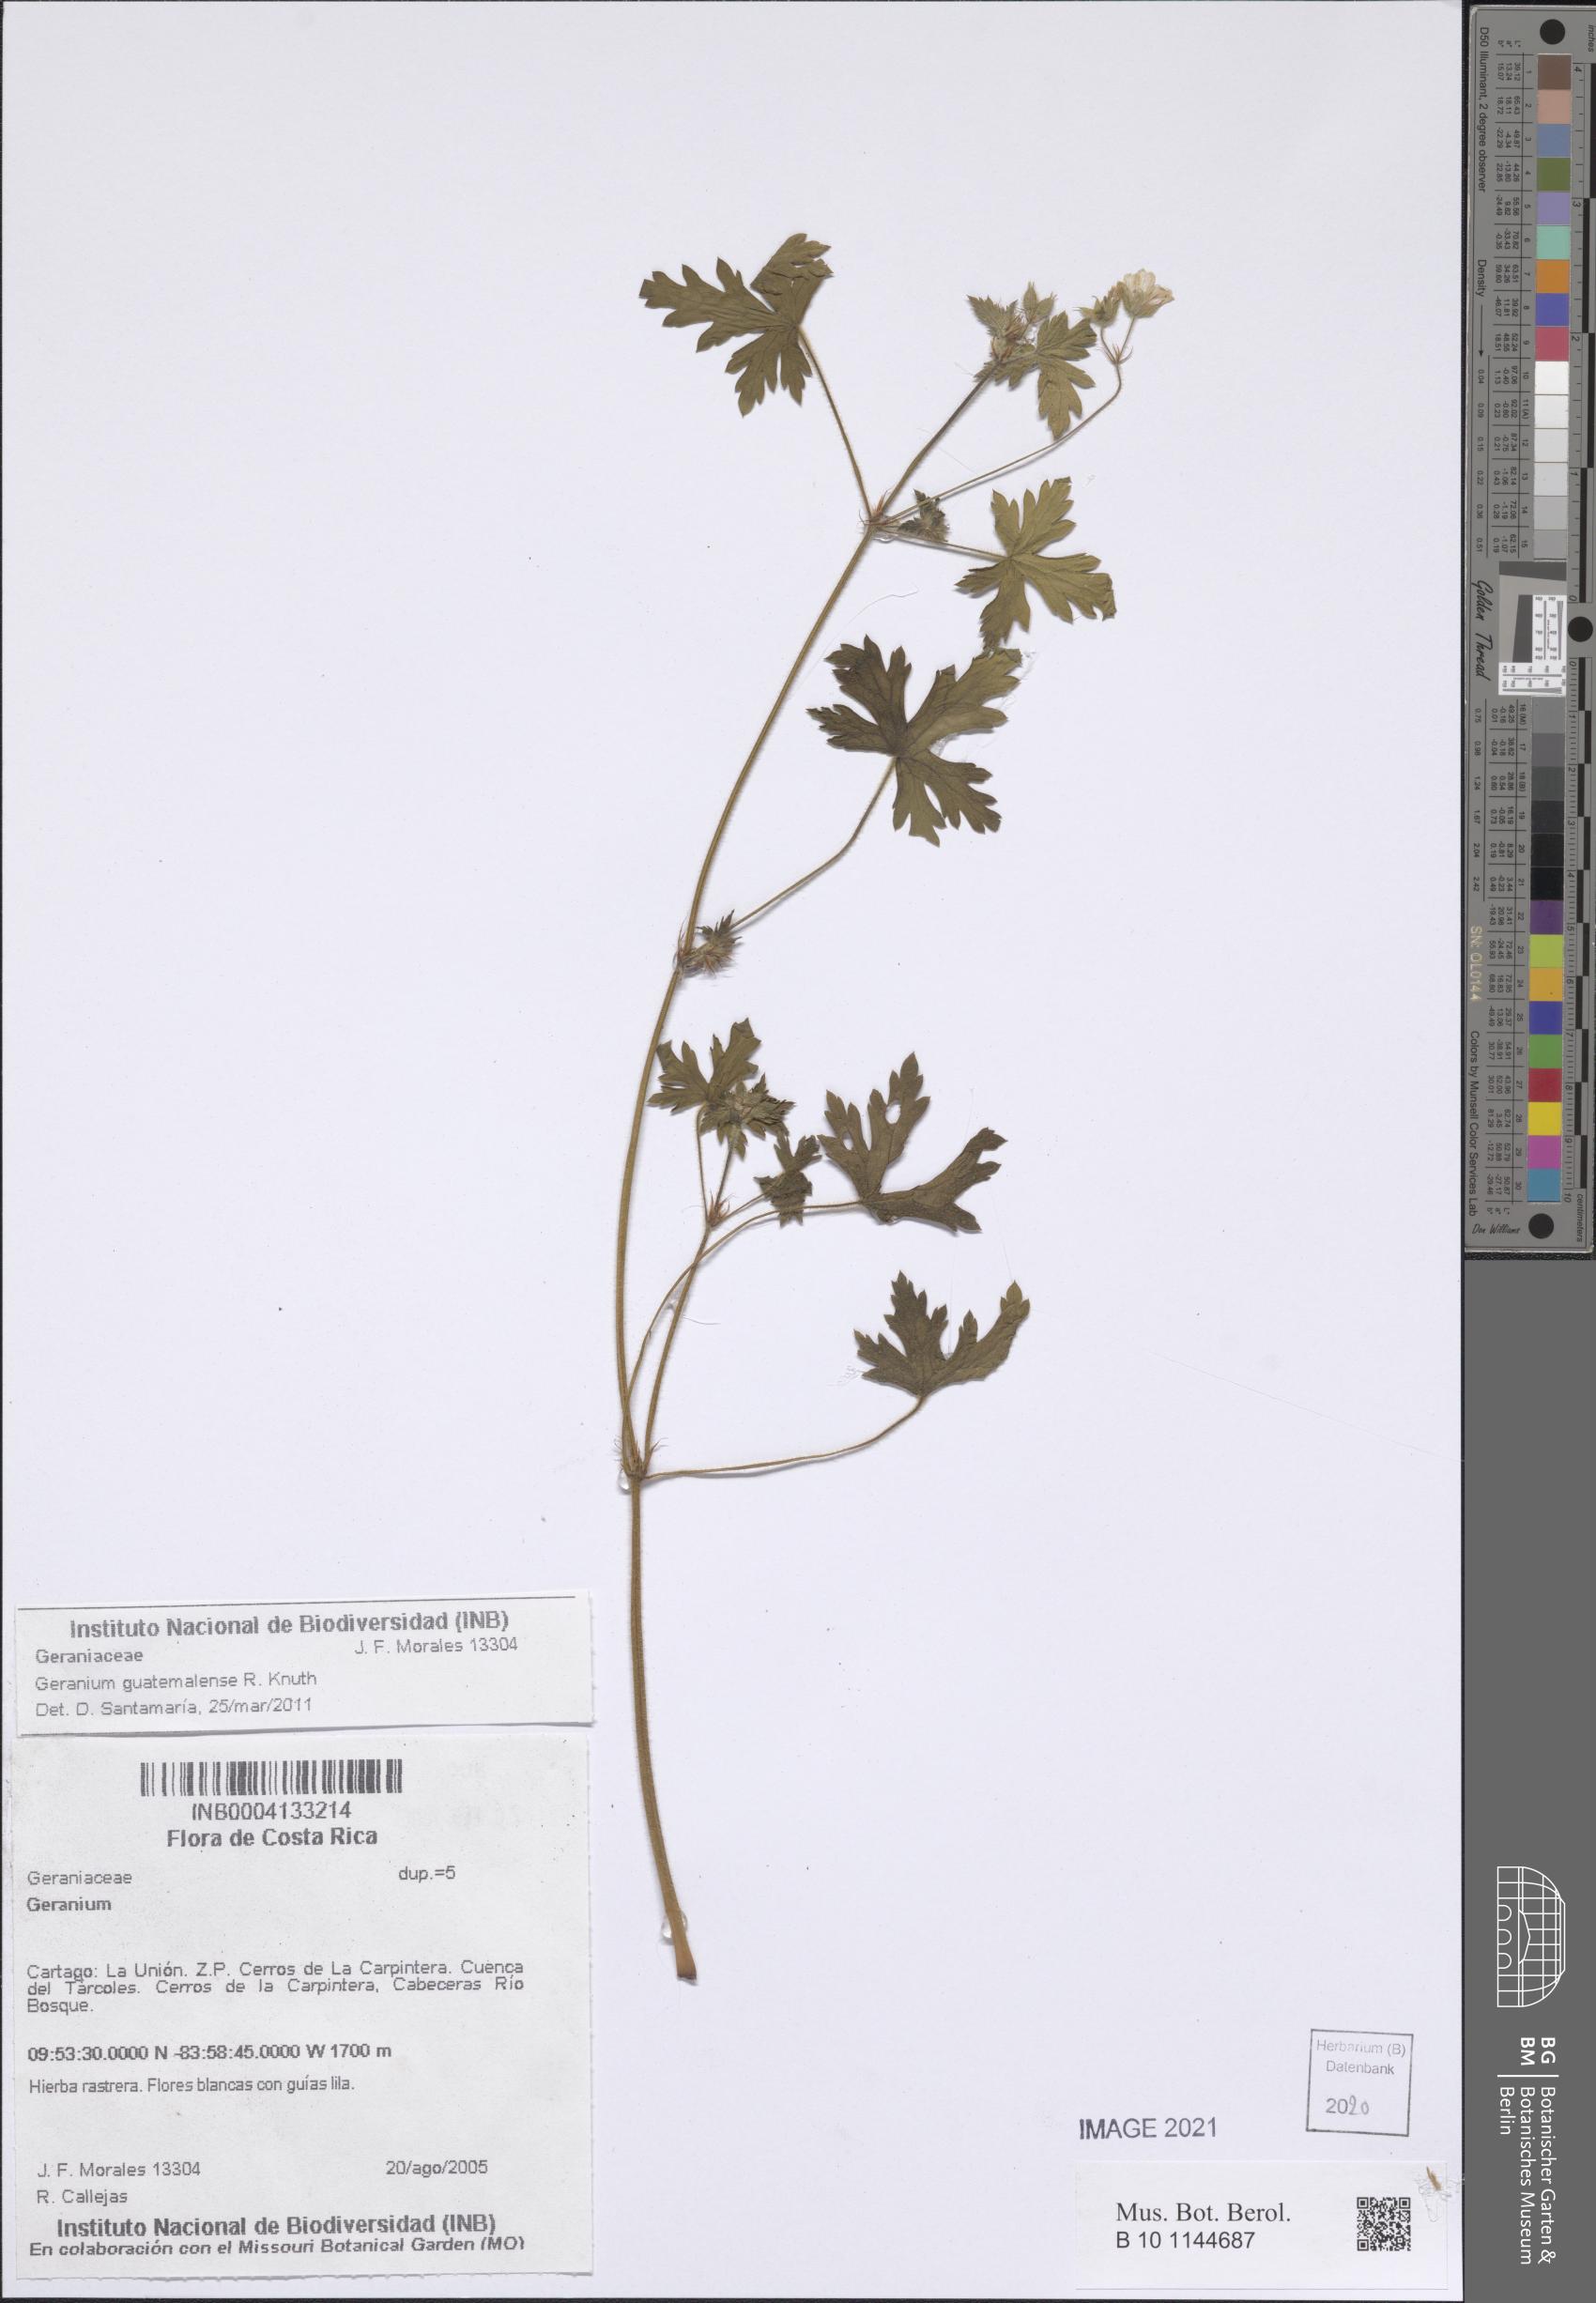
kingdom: Plantae
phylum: Tracheophyta
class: Magnoliopsida
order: Geraniales
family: Geraniaceae
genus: Geranium
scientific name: Geranium
